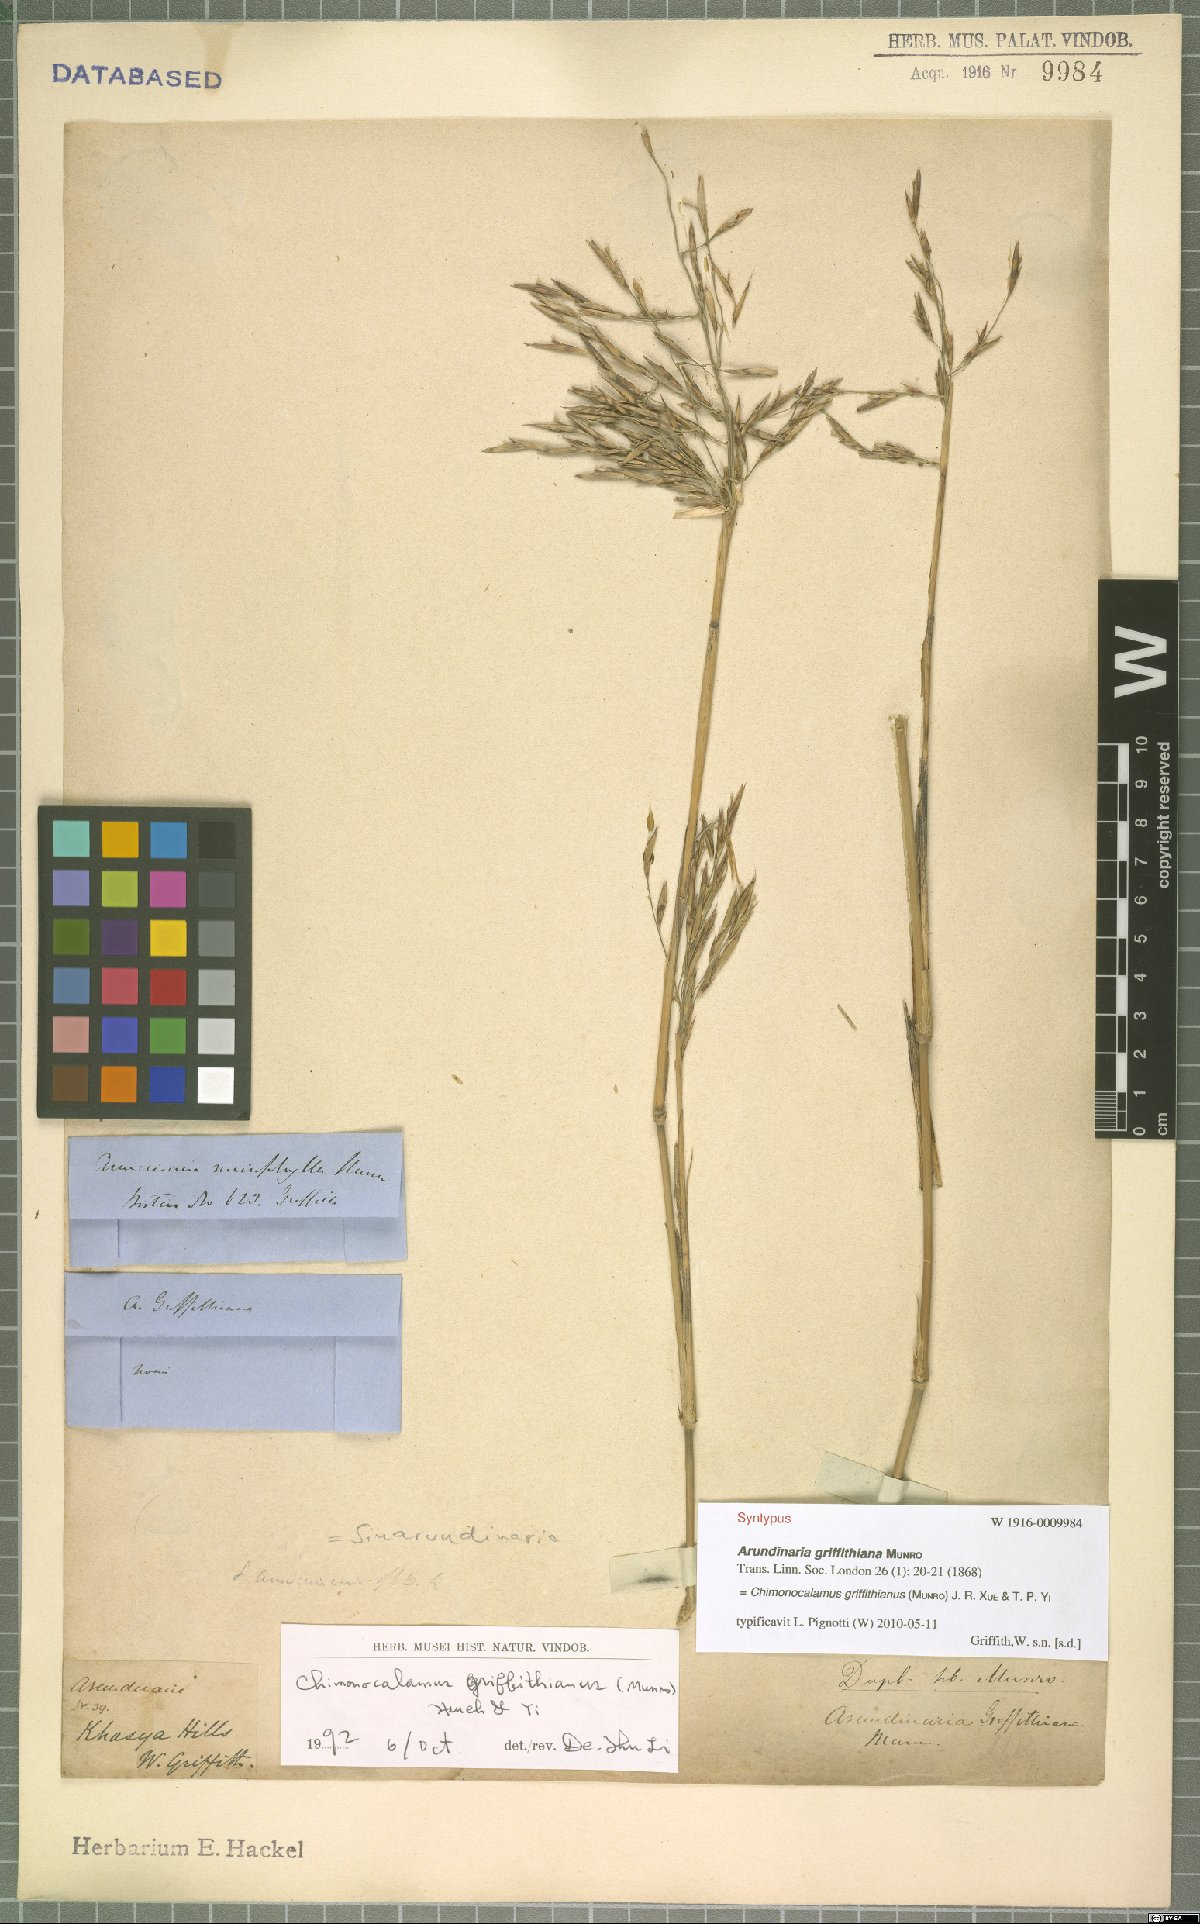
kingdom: Plantae
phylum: Tracheophyta
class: Liliopsida
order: Poales
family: Poaceae
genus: Chimonocalamus
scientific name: Chimonocalamus griffithianus
